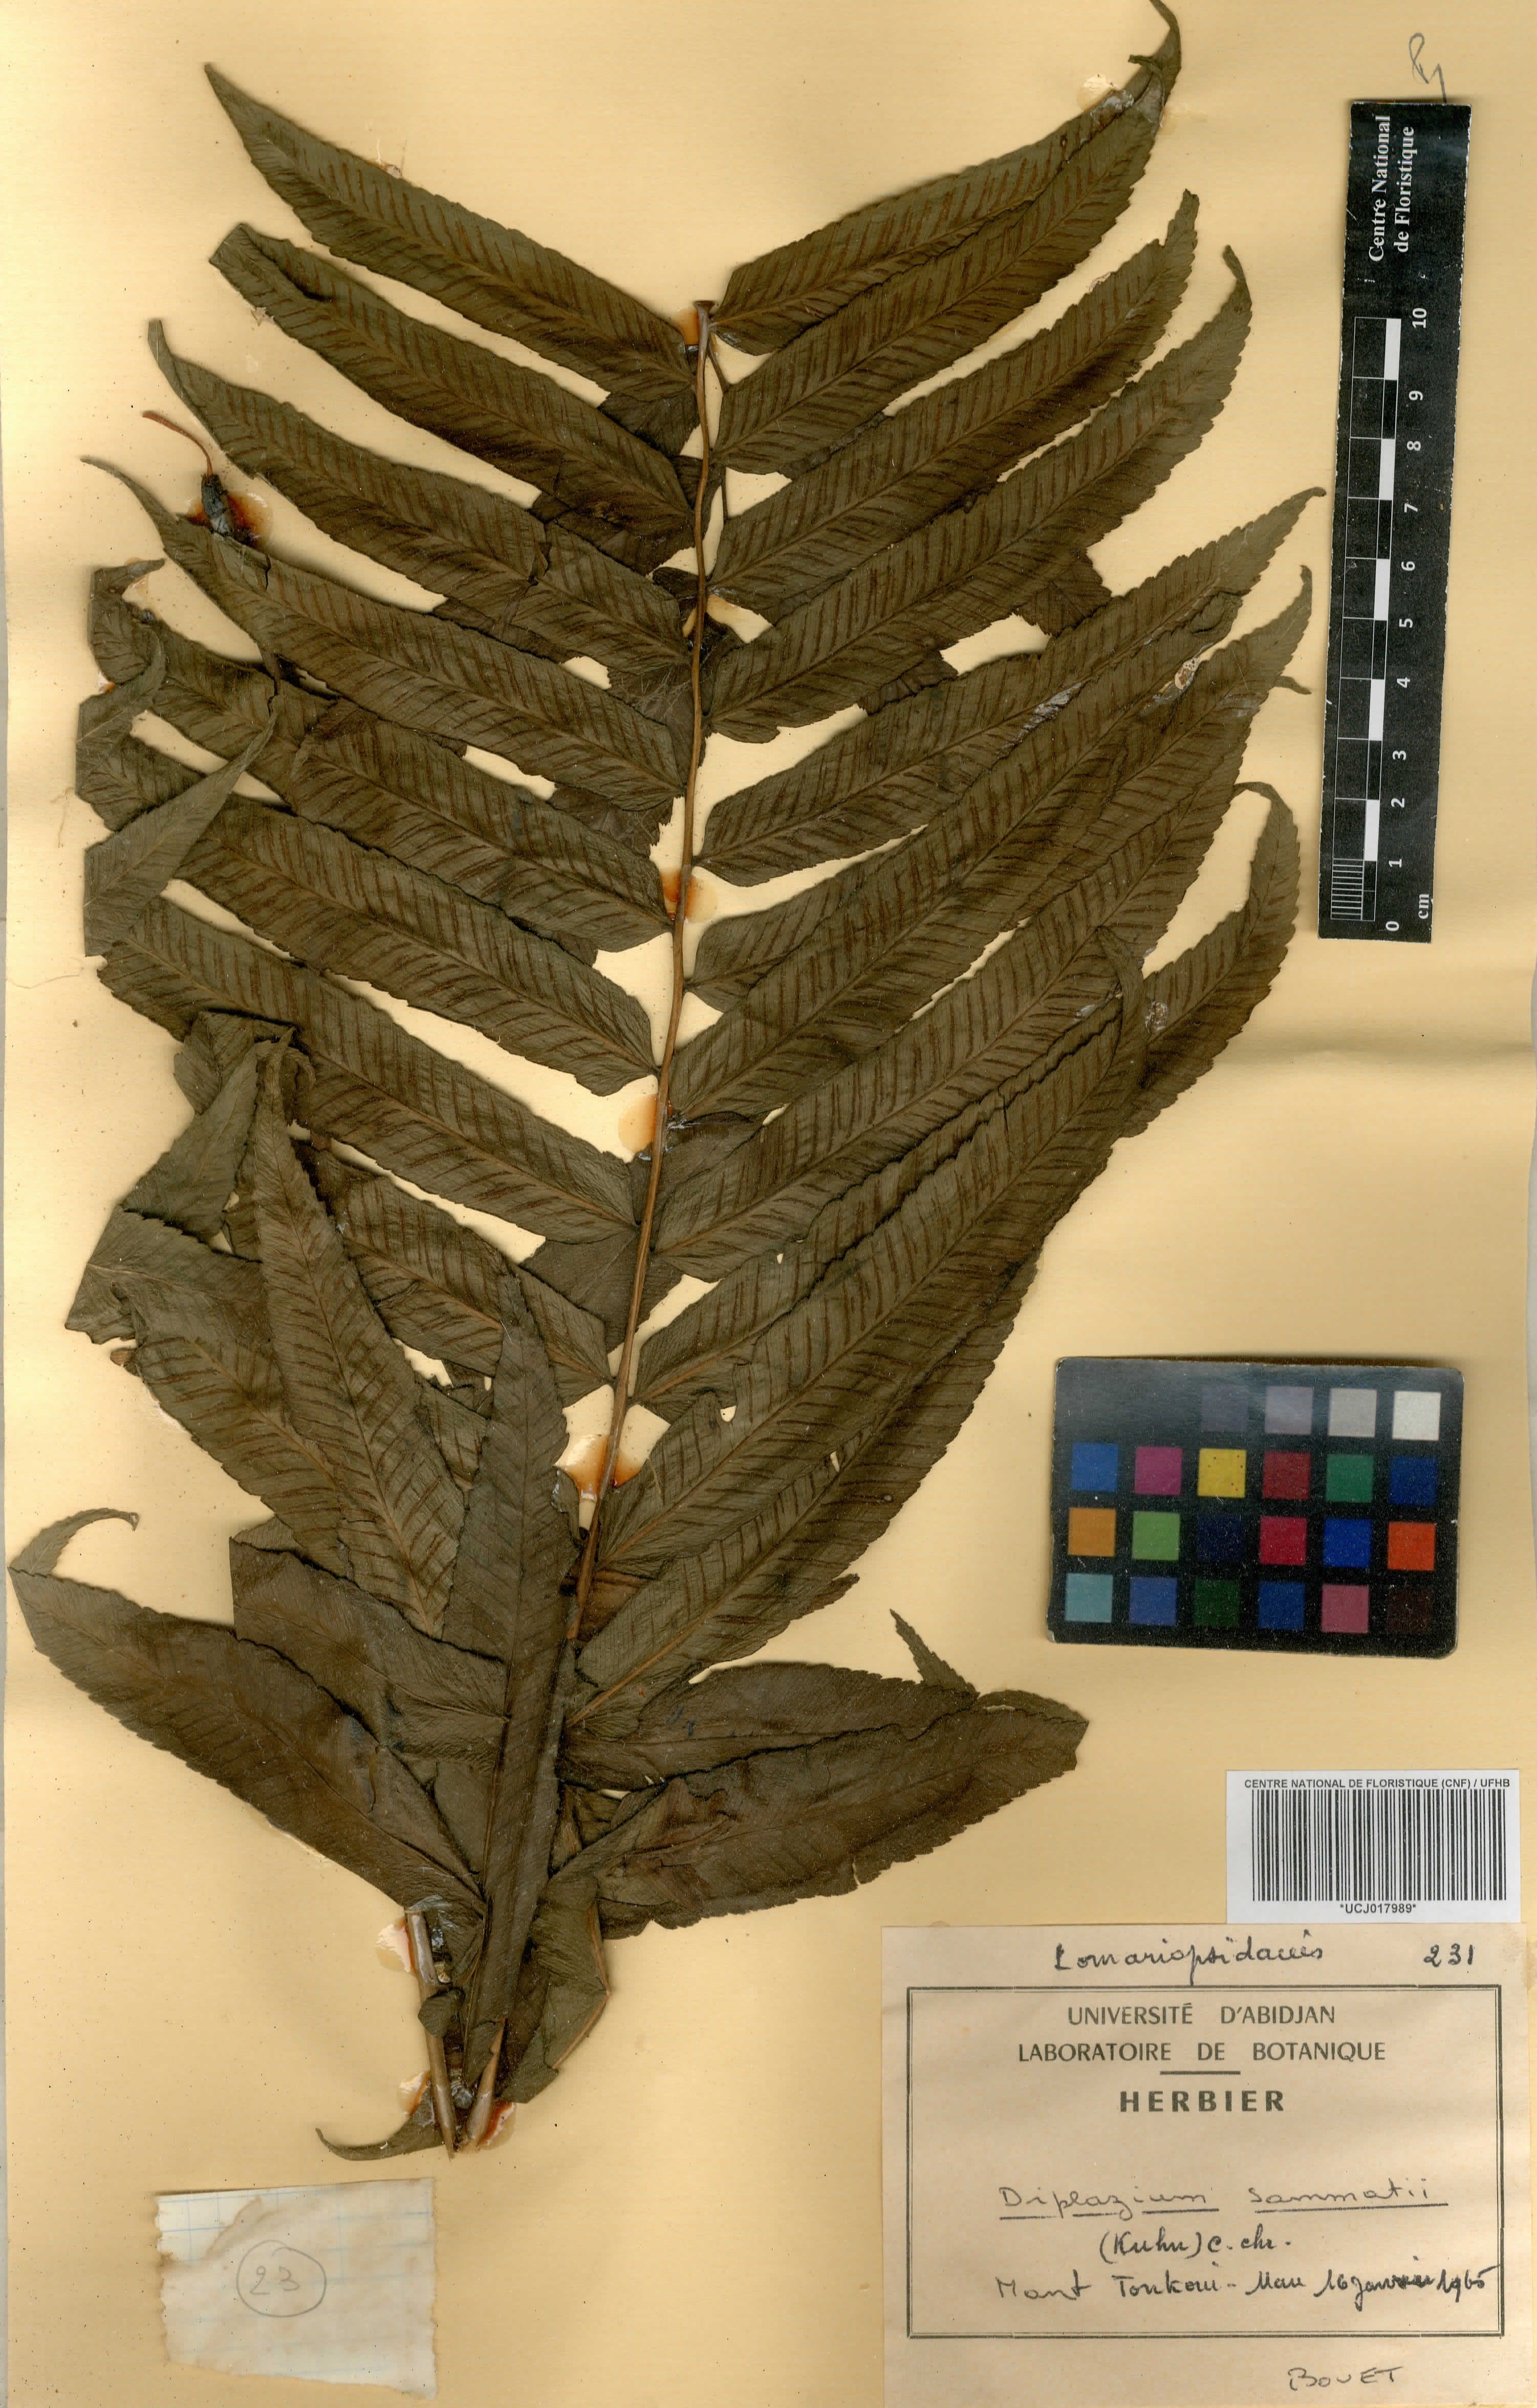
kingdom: Plantae
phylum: Tracheophyta
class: Polypodiopsida
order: Polypodiales
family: Athyriaceae
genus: Diplazium
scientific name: Diplazium sammatii
